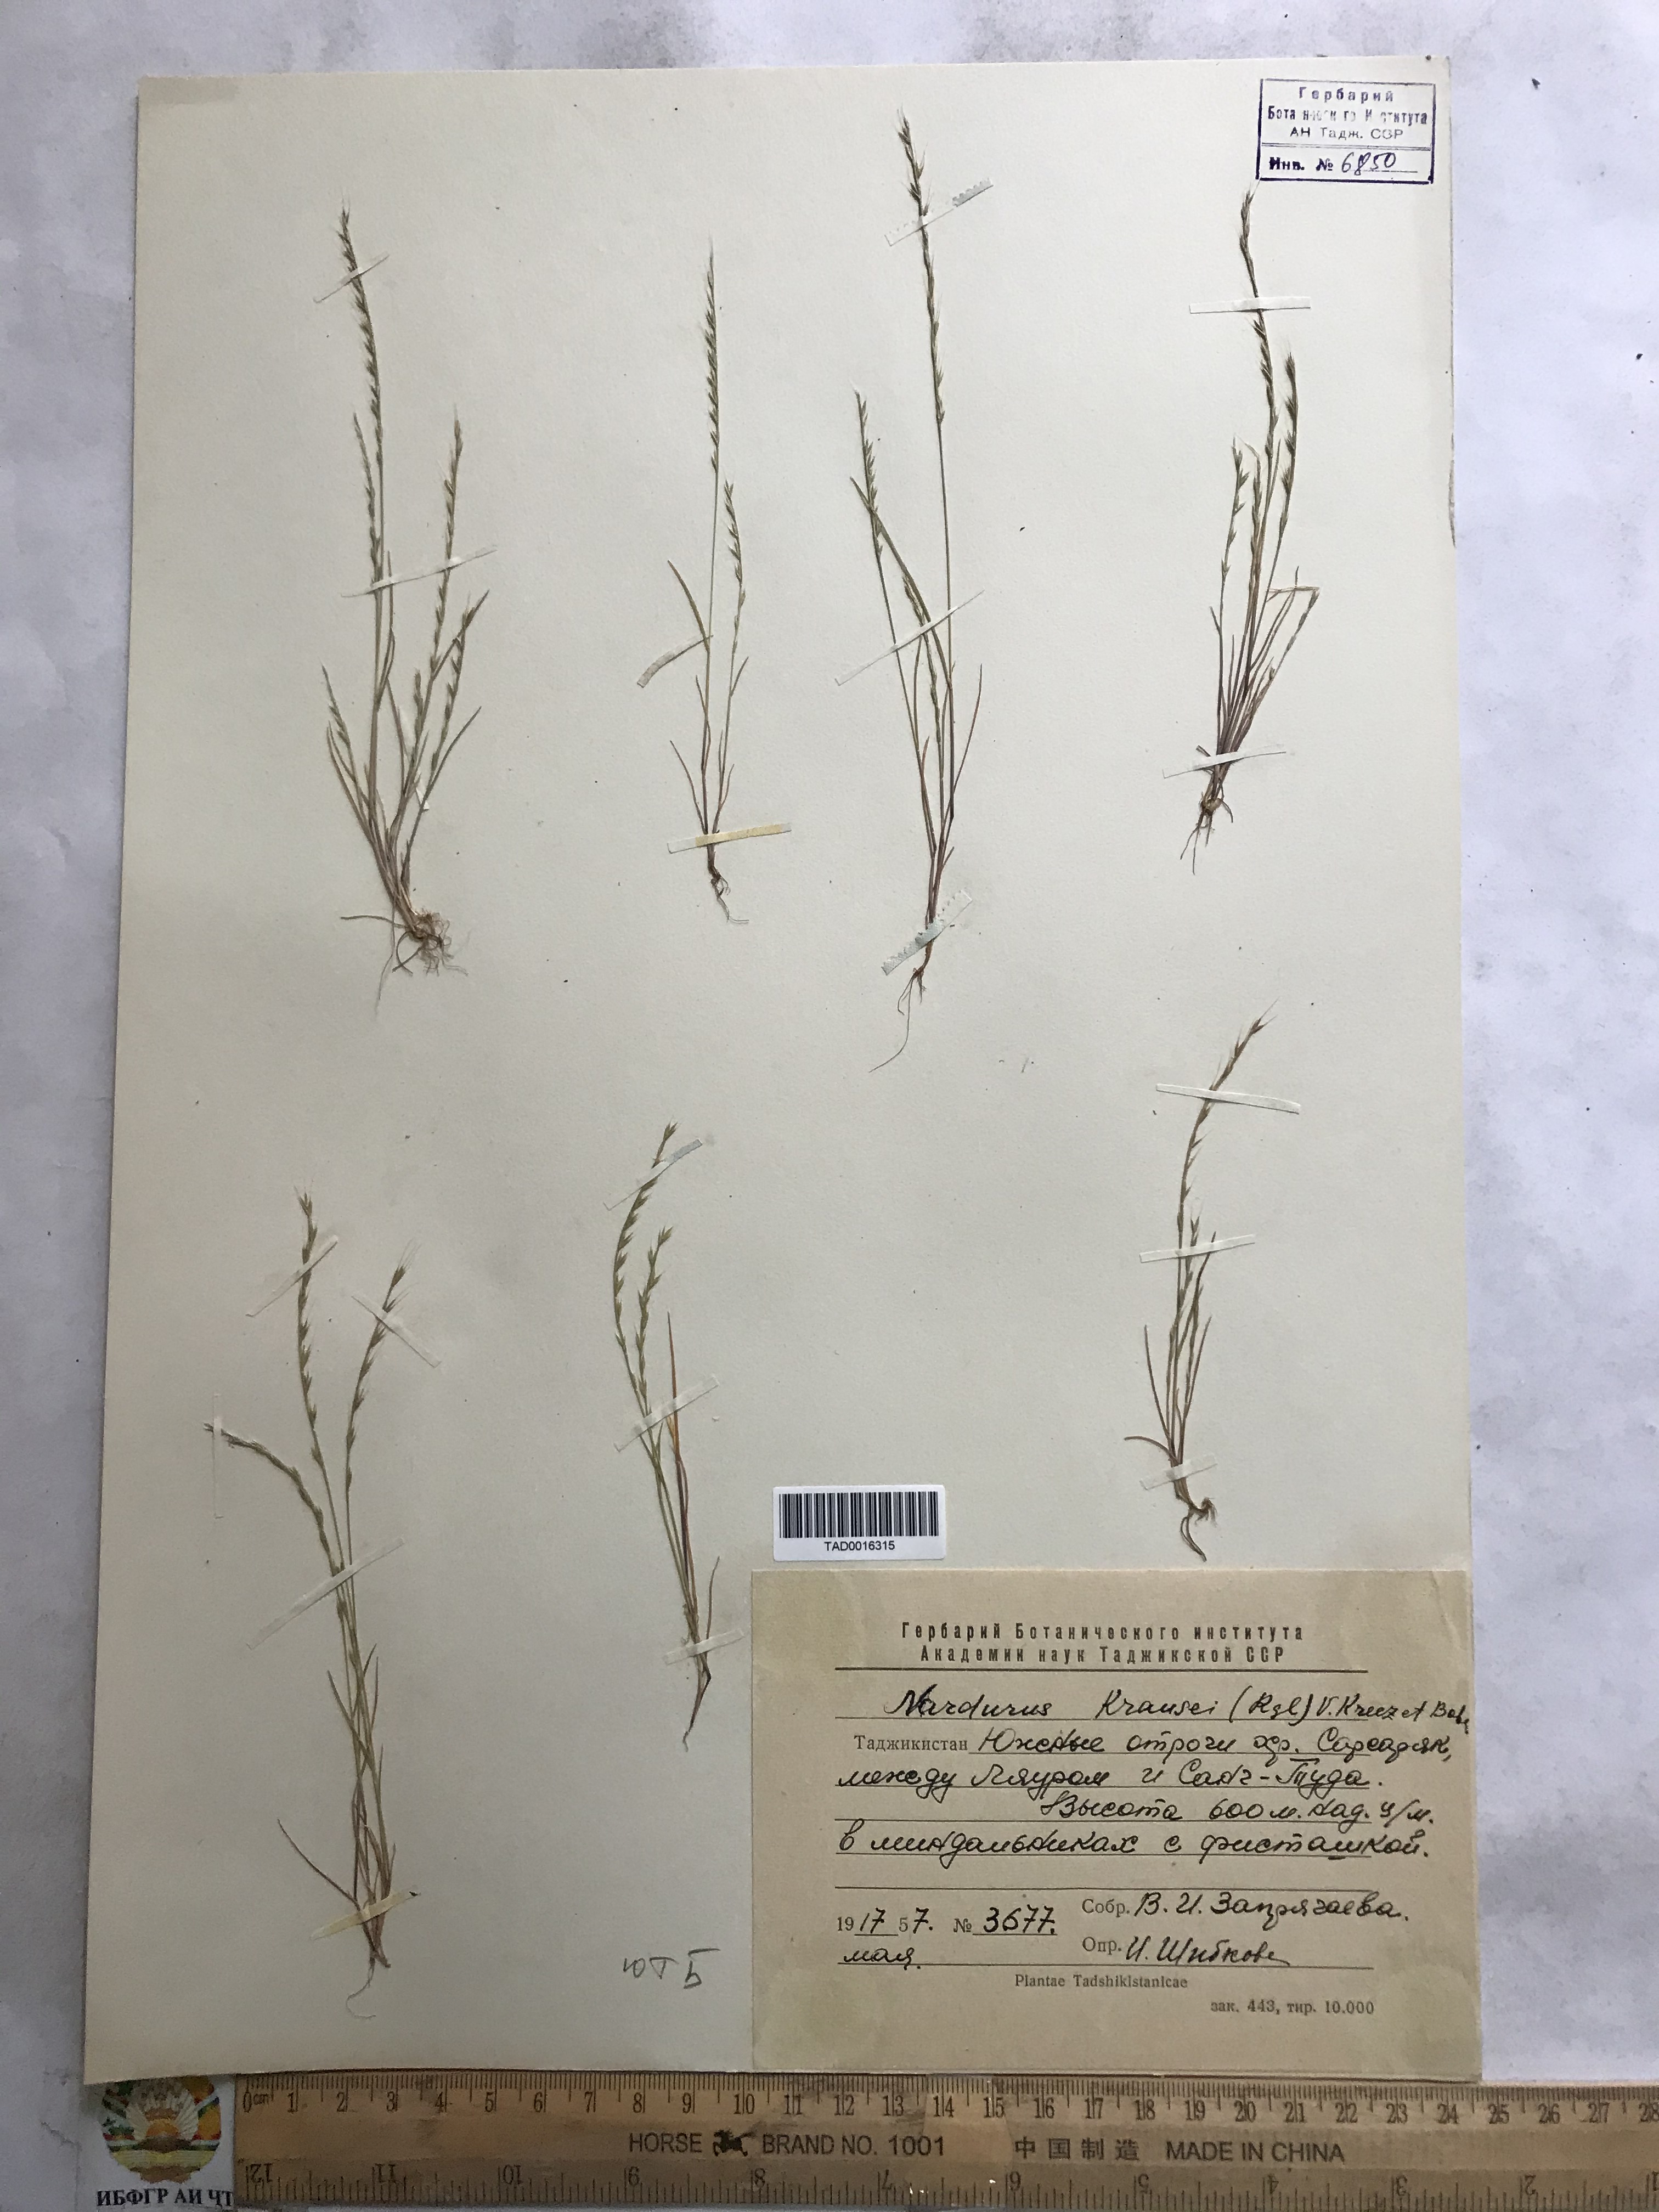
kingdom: Plantae
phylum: Tracheophyta
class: Liliopsida
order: Poales
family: Poaceae
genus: Festuca
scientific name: Festuca maritima
